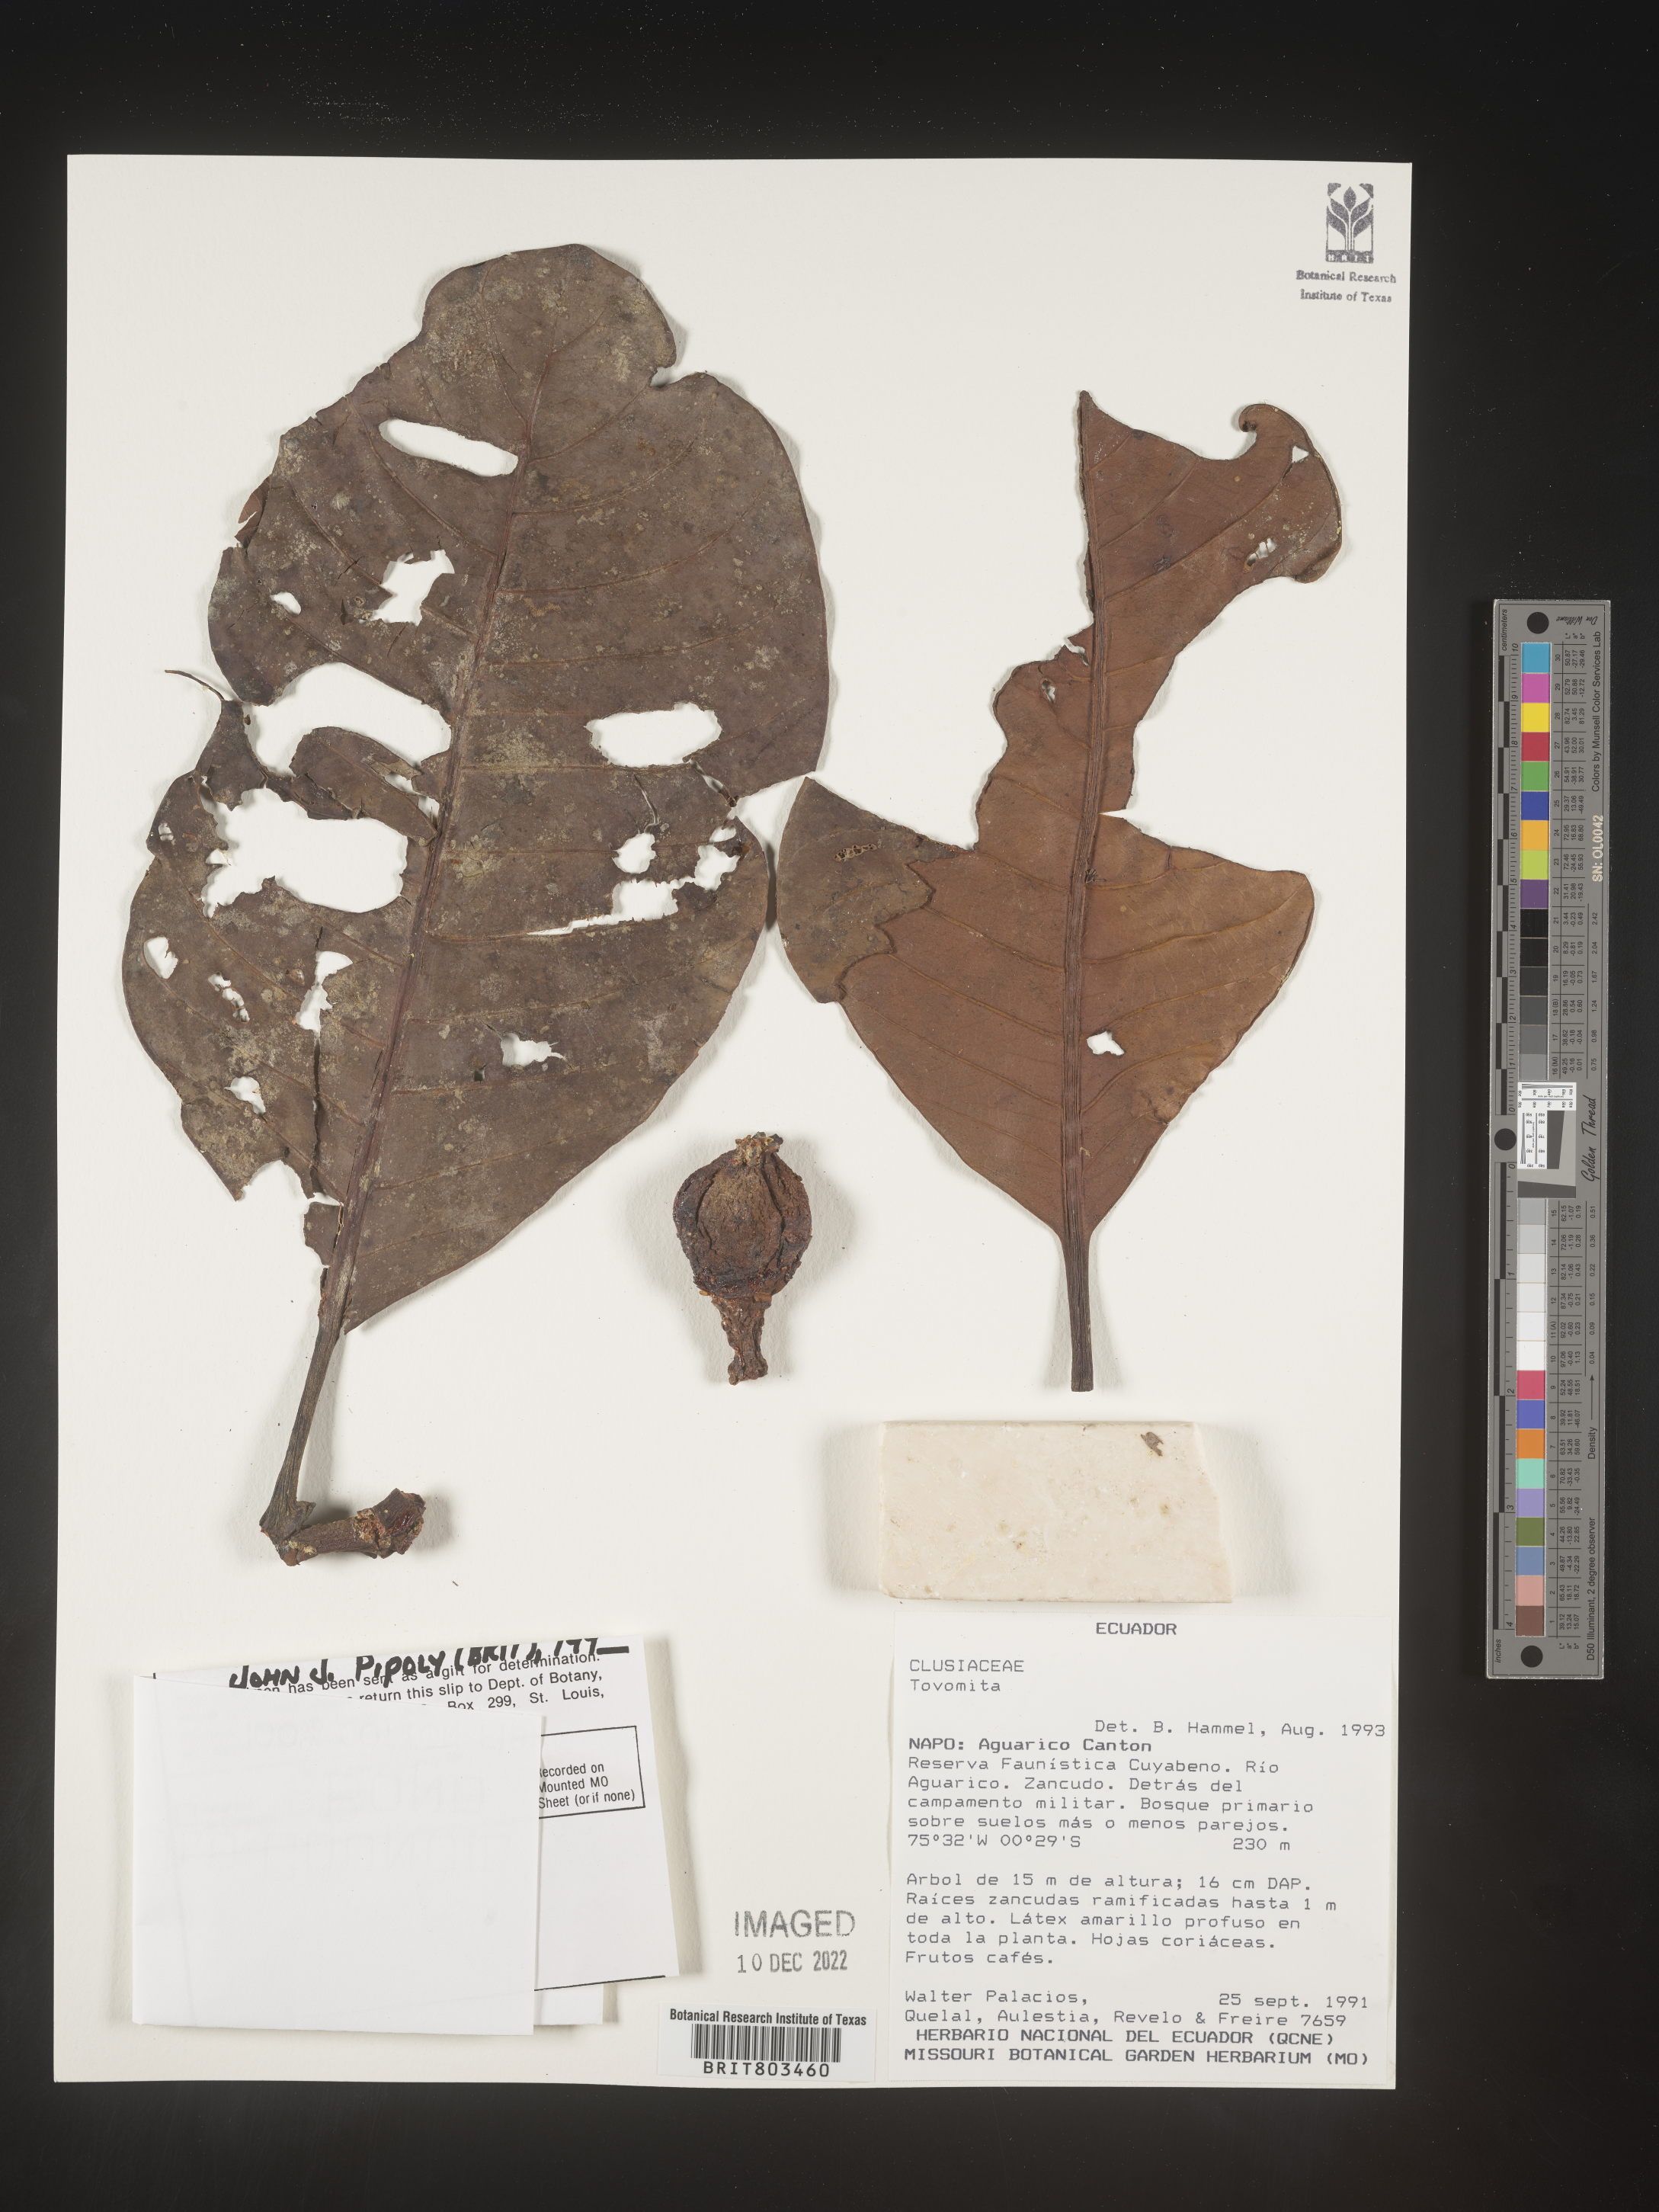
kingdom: Plantae
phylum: Tracheophyta
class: Magnoliopsida
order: Malpighiales
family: Clusiaceae
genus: Tovomita
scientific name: Tovomita
